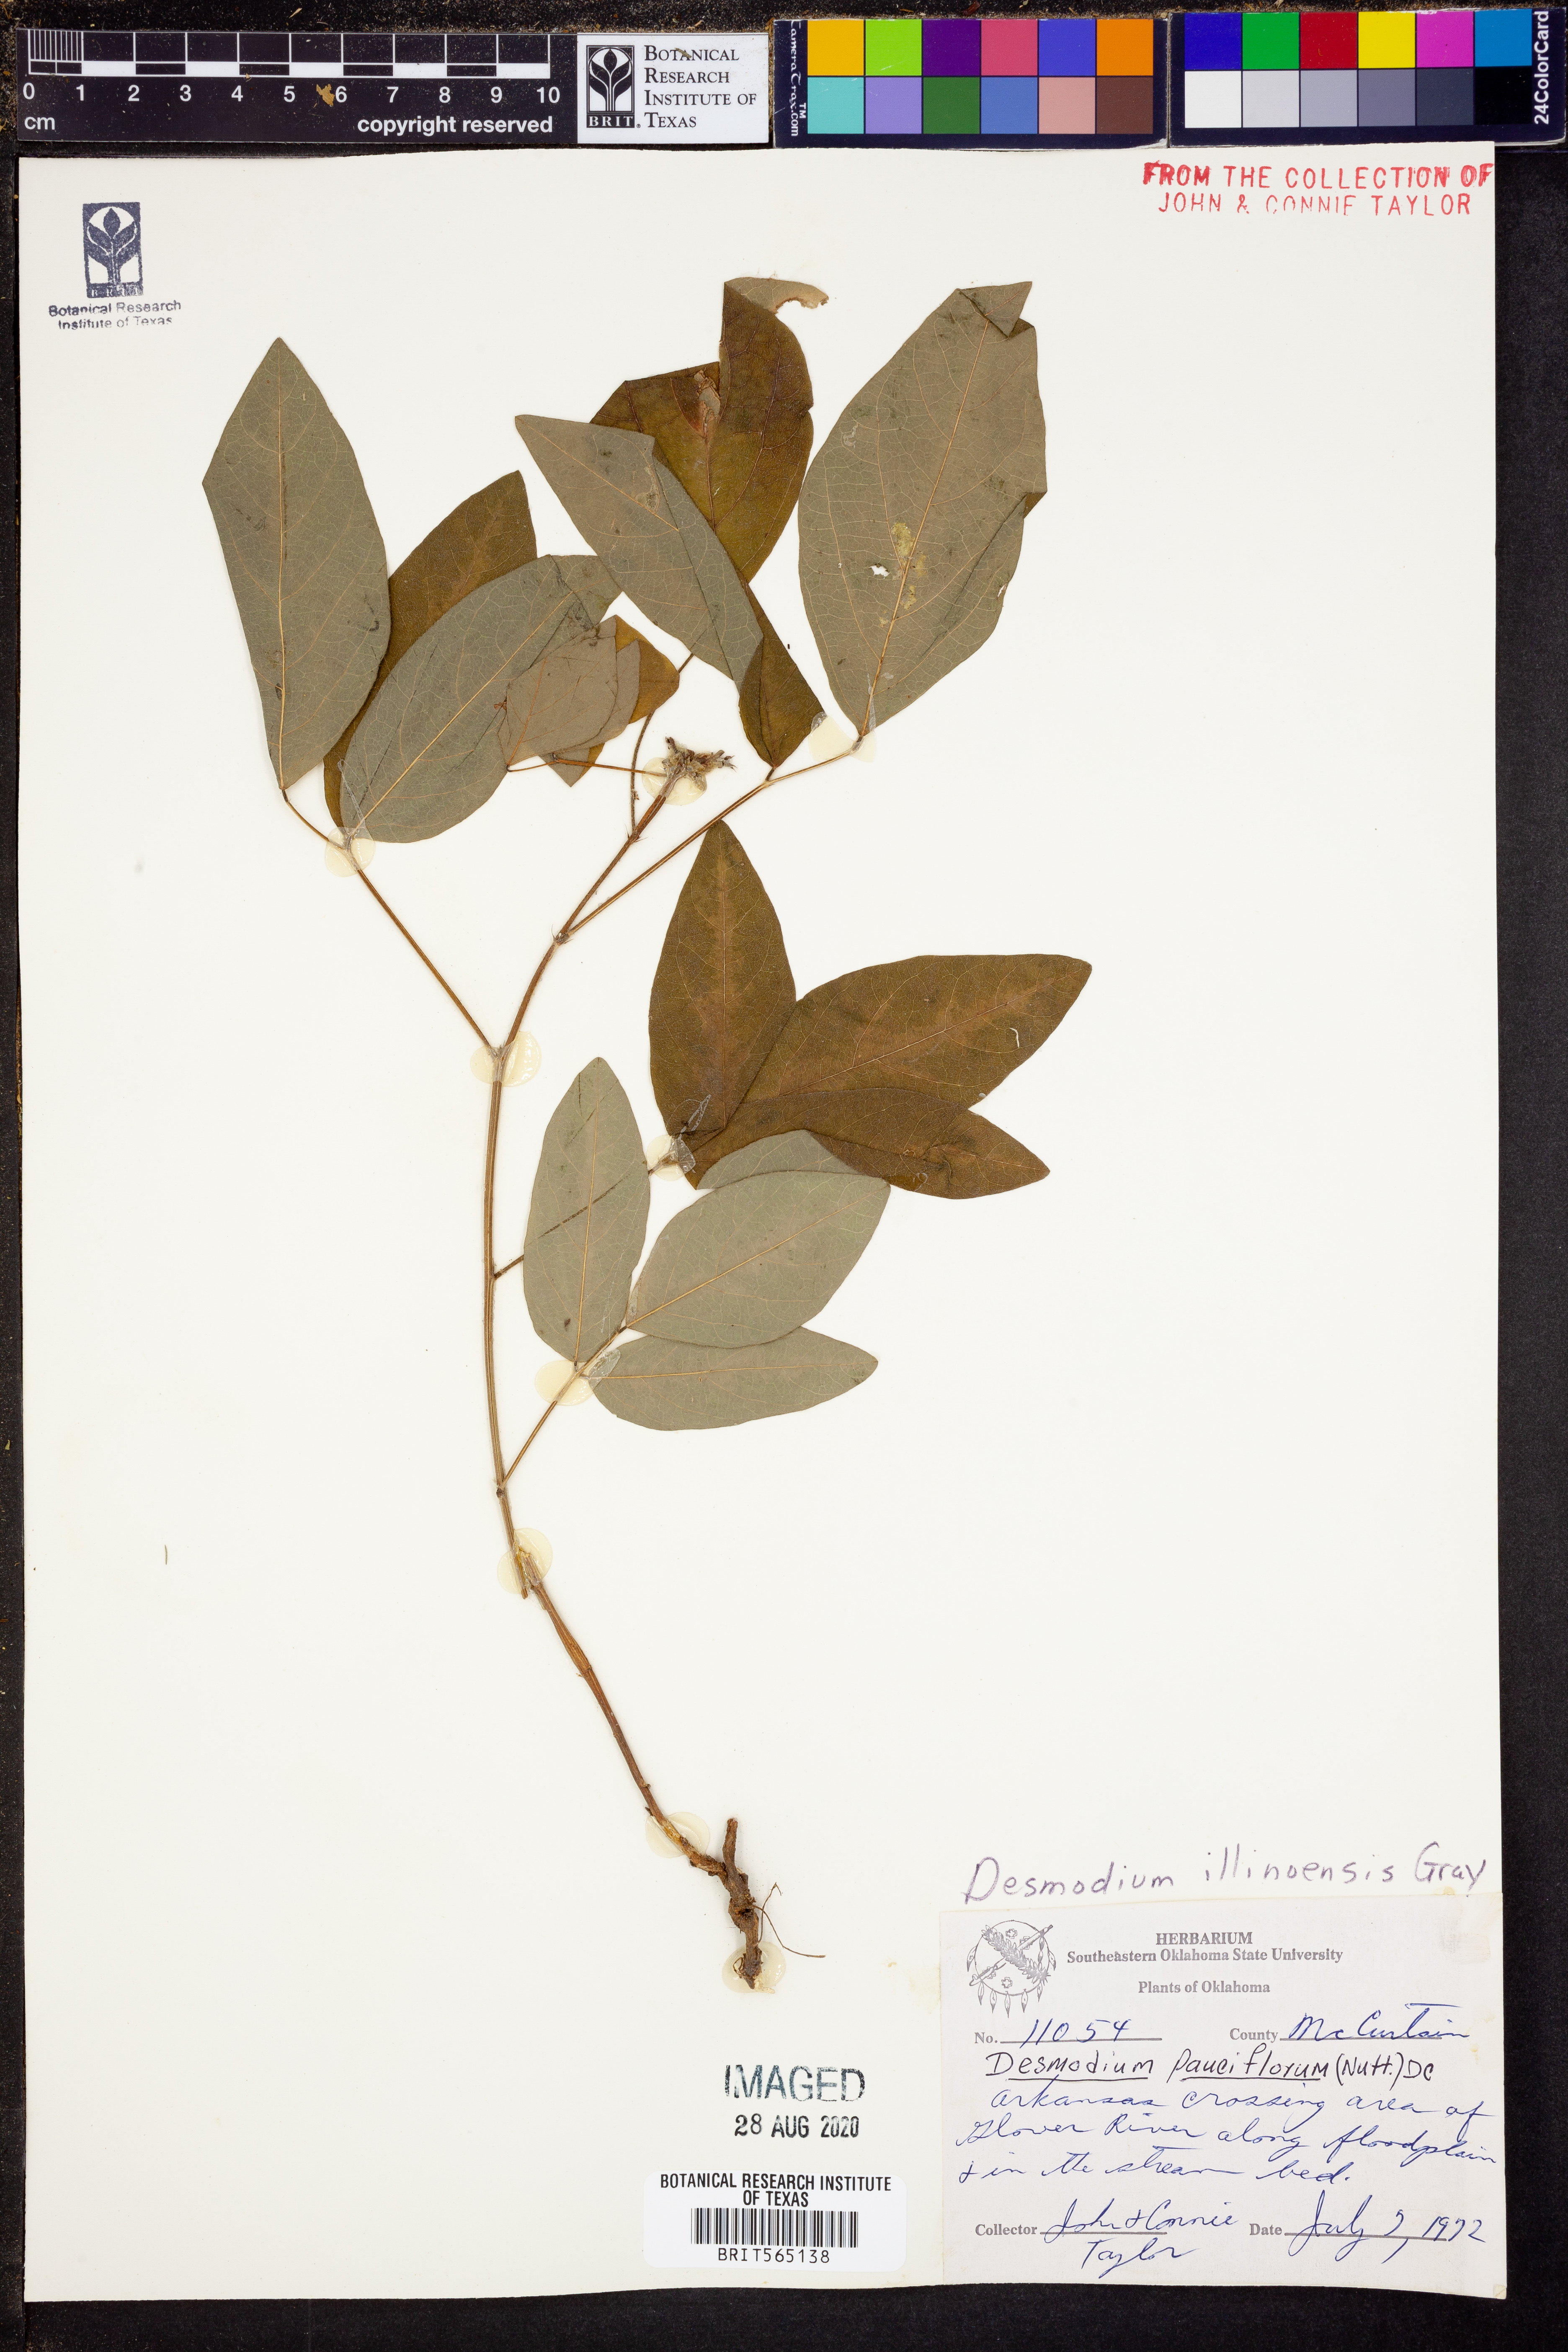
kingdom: Plantae
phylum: Tracheophyta
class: Magnoliopsida
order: Fabales
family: Fabaceae
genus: Desmodium
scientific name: Desmodium illinoense
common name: Illinois tick-clover
